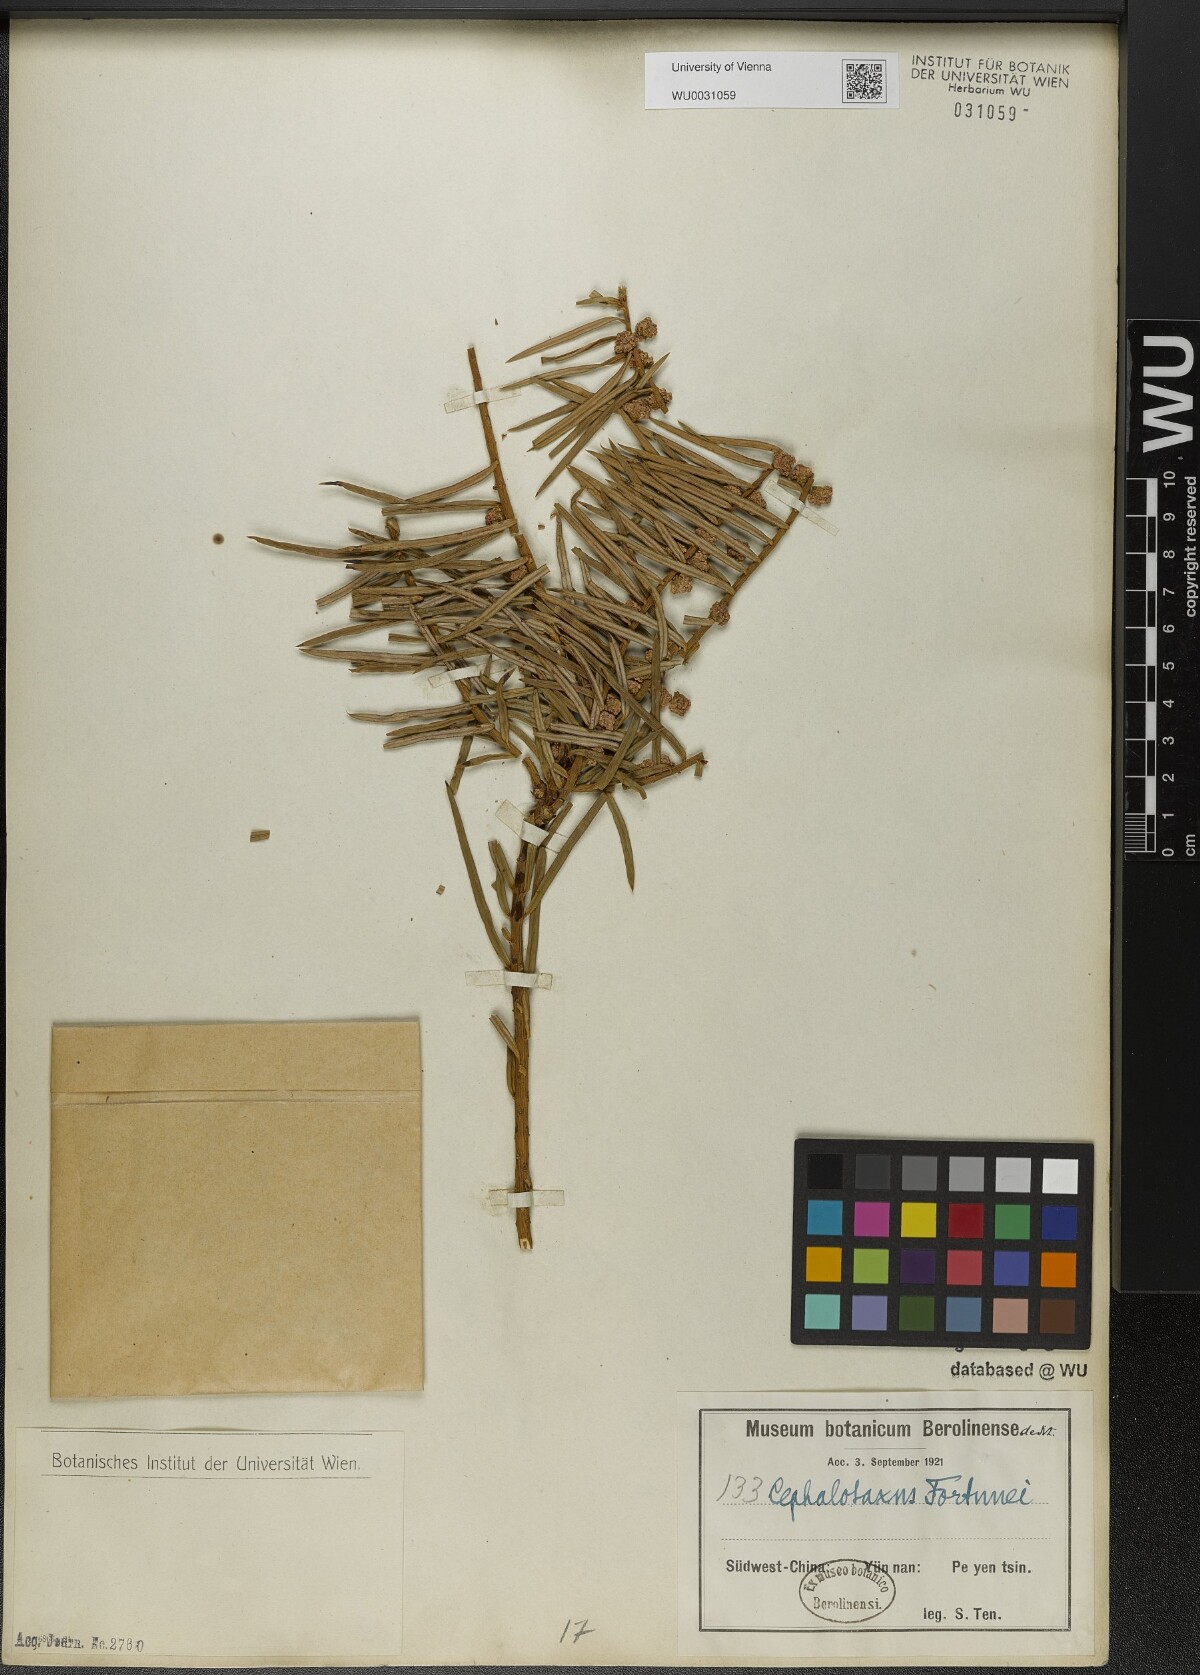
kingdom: Plantae
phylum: Tracheophyta
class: Pinopsida
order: Pinales
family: Cephalotaxaceae
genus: Cephalotaxus
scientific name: Cephalotaxus fortunei
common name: Chinese plum-yew
